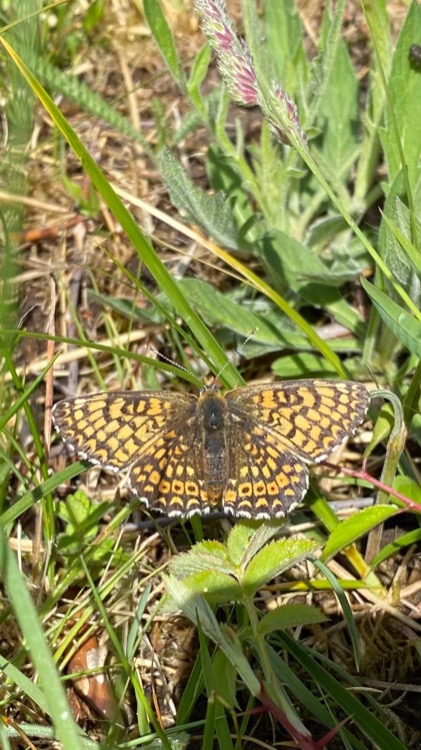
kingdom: Animalia
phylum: Arthropoda
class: Insecta
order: Lepidoptera
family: Nymphalidae
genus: Melitaea
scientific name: Melitaea cinxia
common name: Okkergul pletvinge
